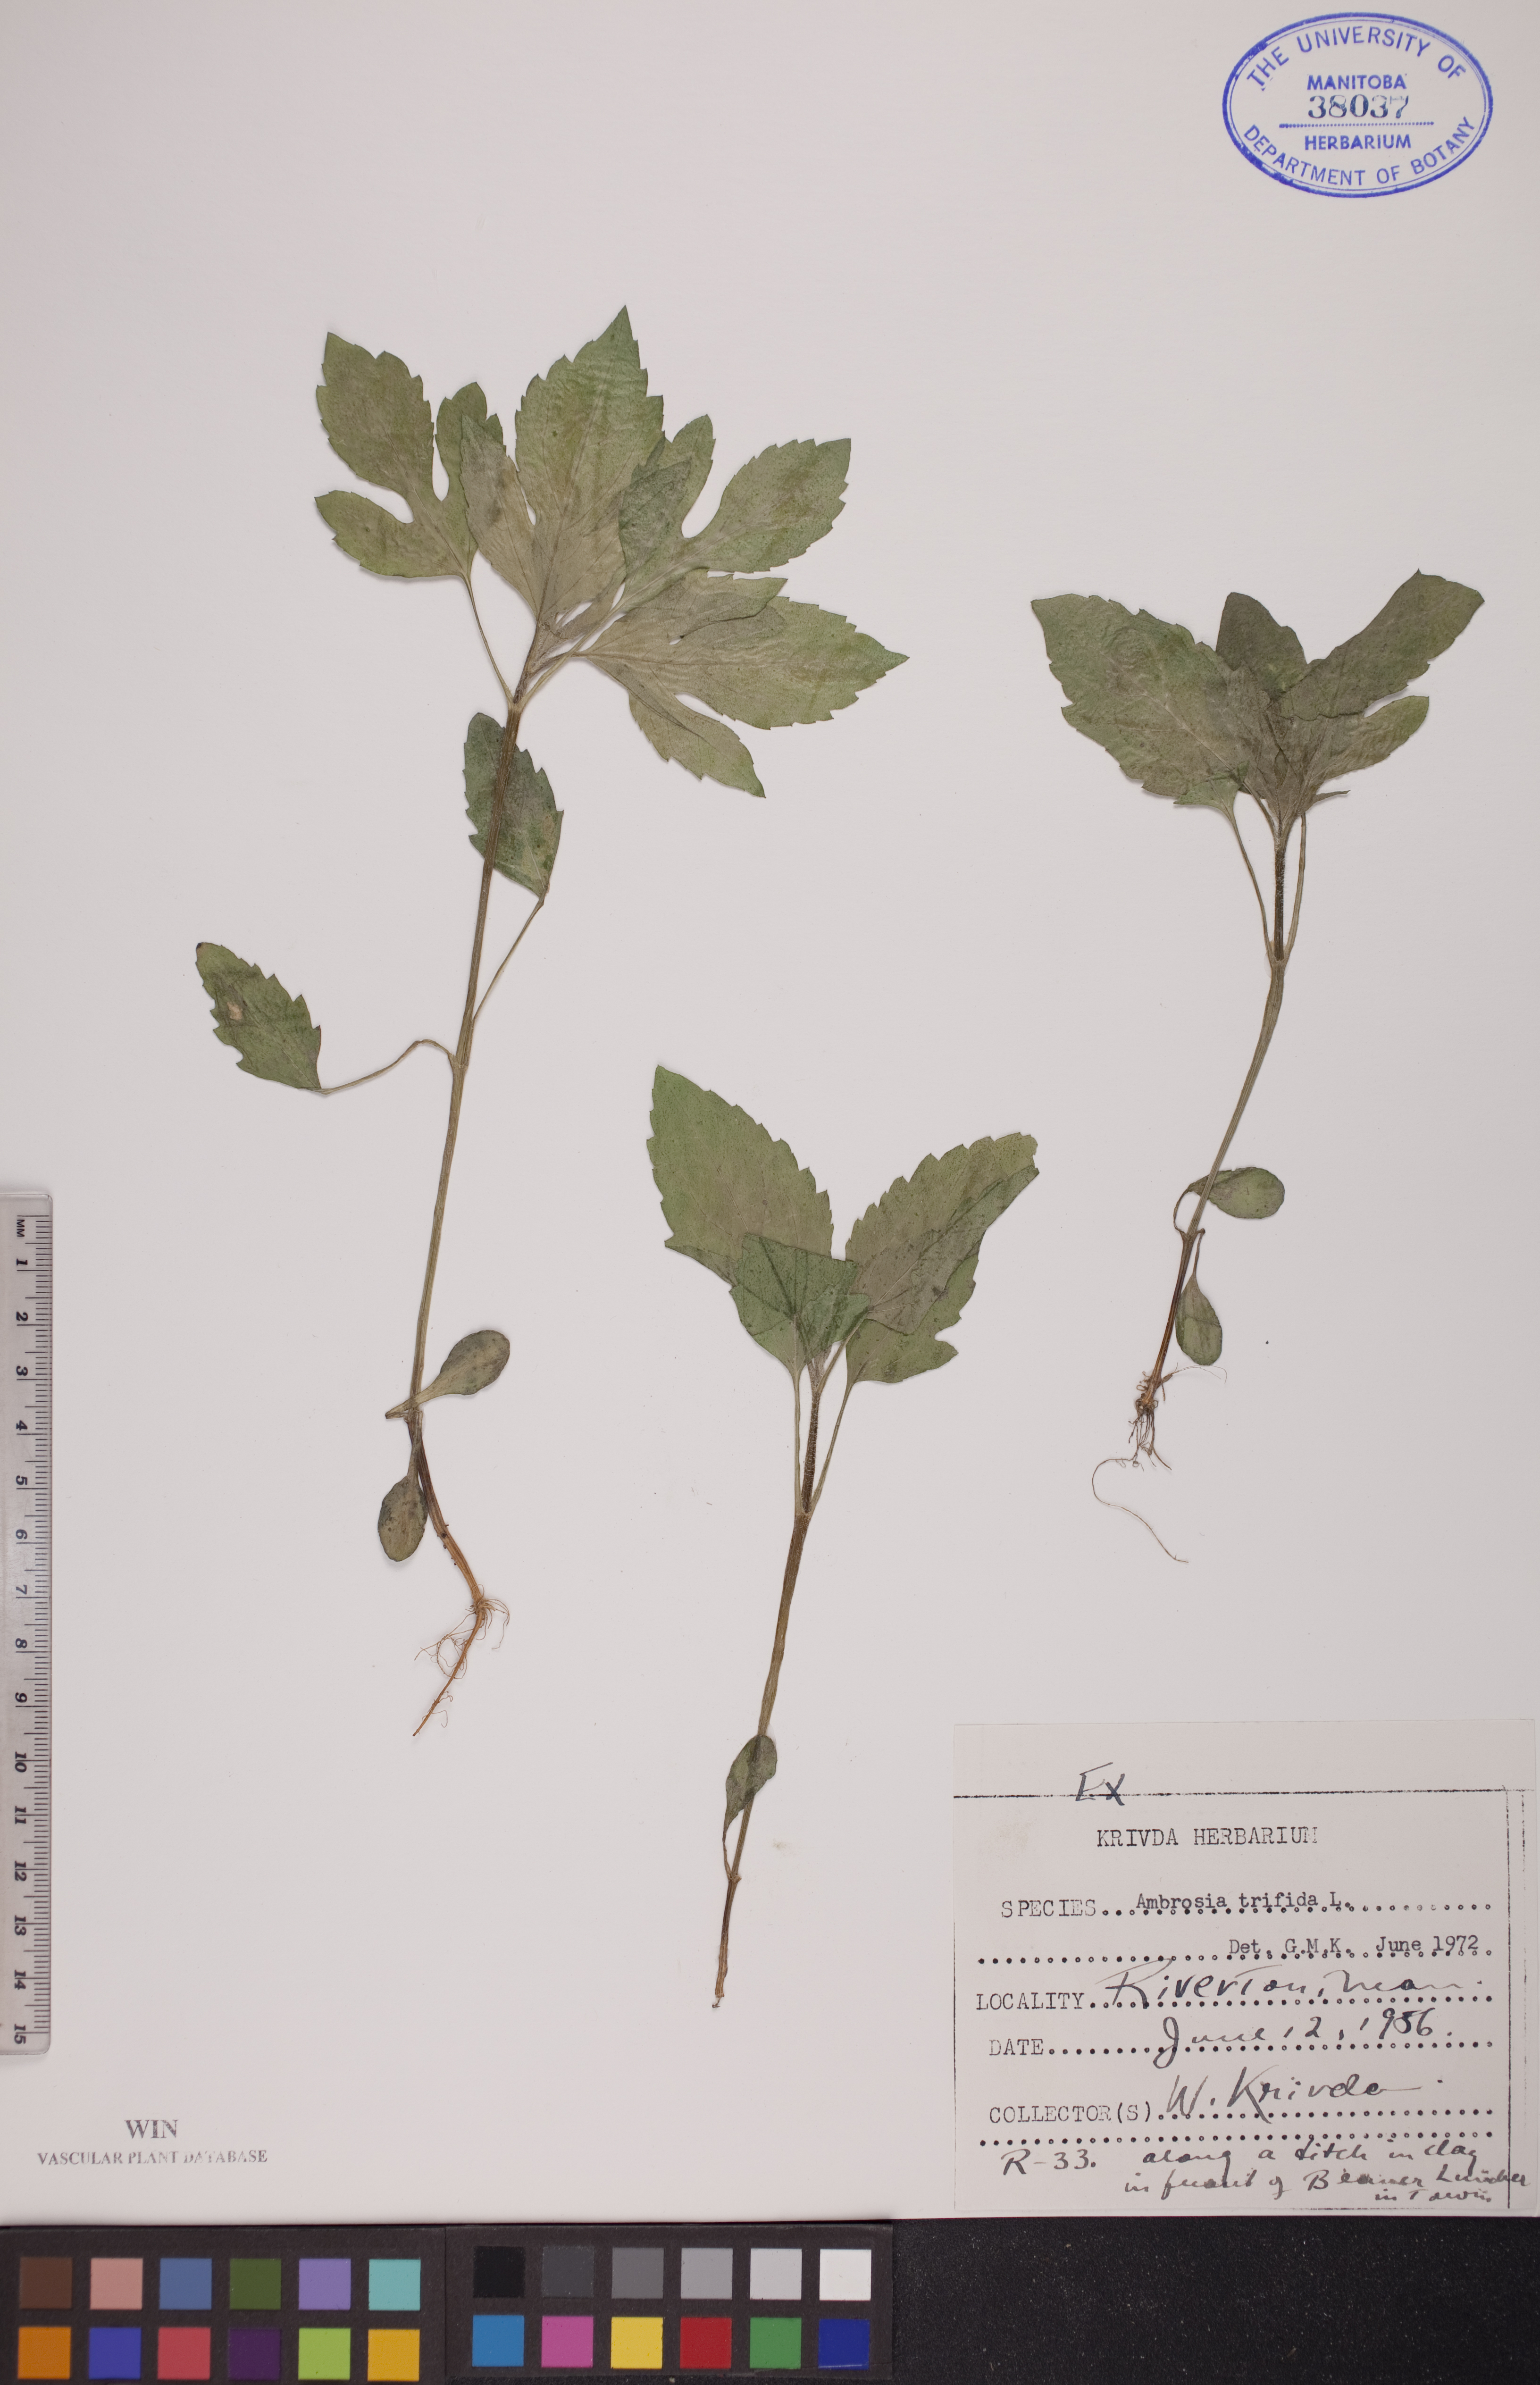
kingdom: Plantae
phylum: Tracheophyta
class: Magnoliopsida
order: Asterales
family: Asteraceae
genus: Ambrosia
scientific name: Ambrosia trifida
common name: Giant ragweed
